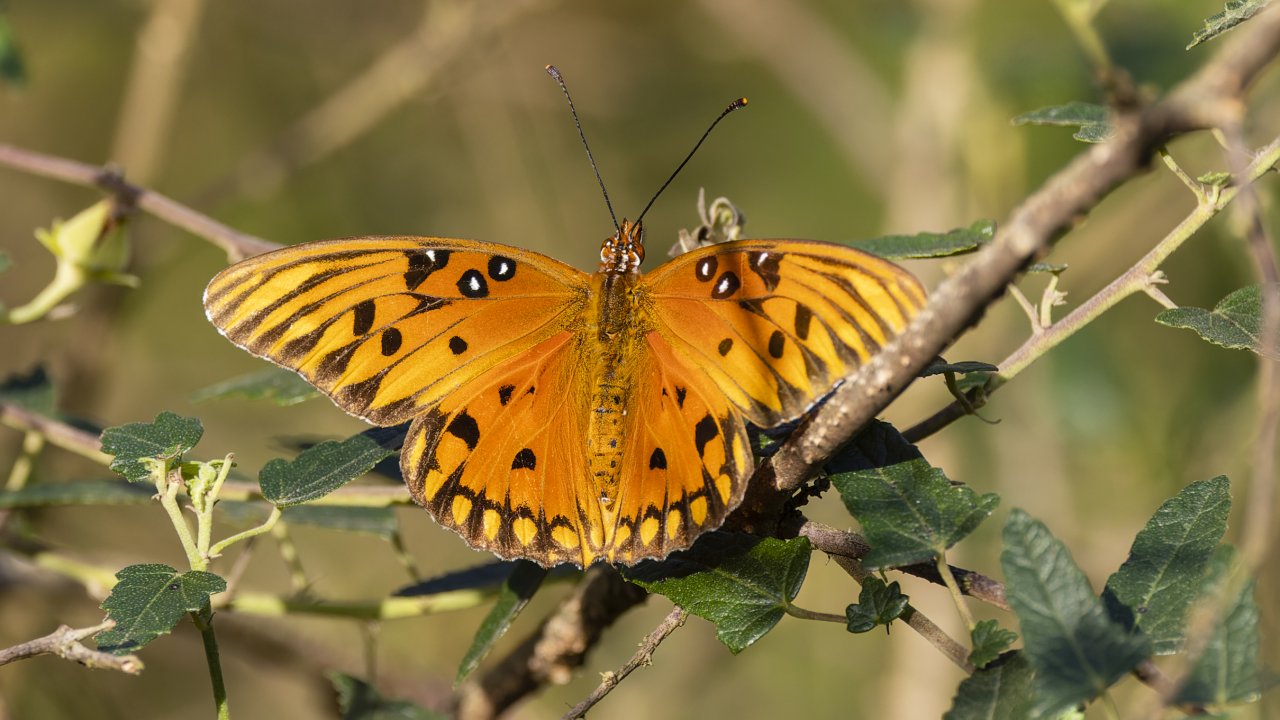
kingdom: Animalia
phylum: Arthropoda
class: Insecta
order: Lepidoptera
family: Nymphalidae
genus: Dione
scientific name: Dione vanillae
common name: Gulf Fritillary
